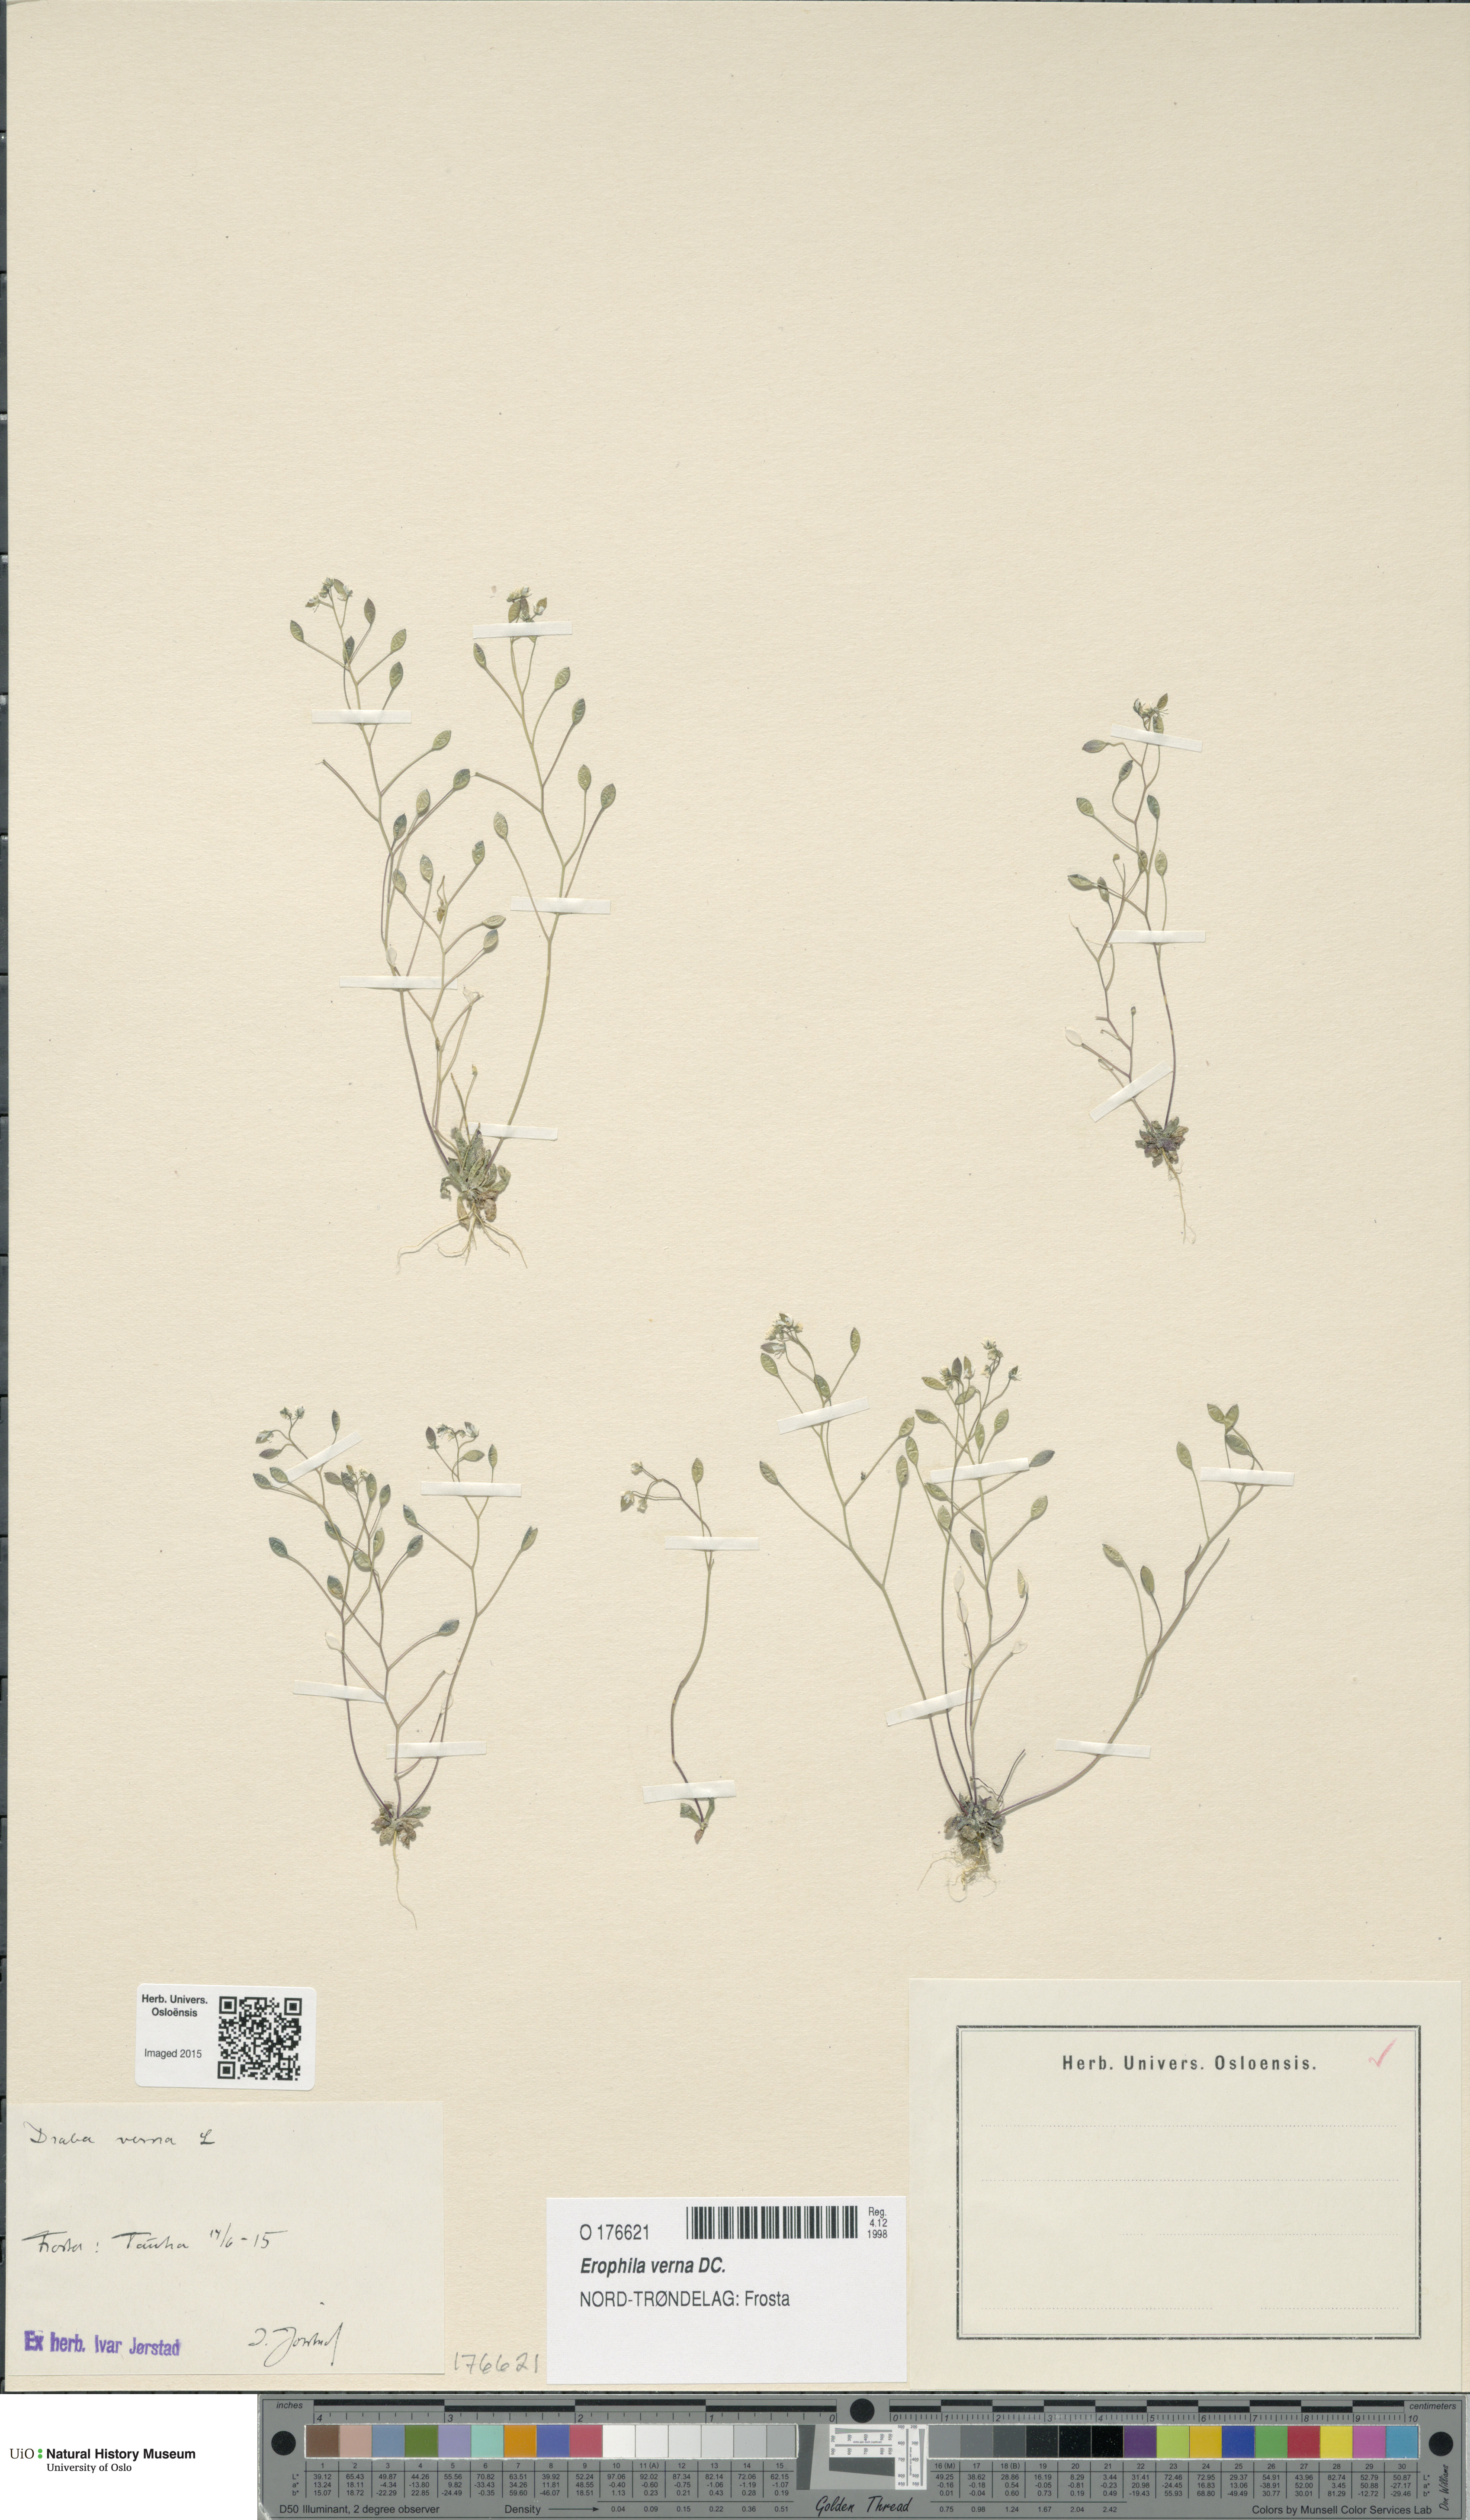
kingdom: Plantae
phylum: Tracheophyta
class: Magnoliopsida
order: Brassicales
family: Brassicaceae
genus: Draba
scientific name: Draba verna
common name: Spring draba
